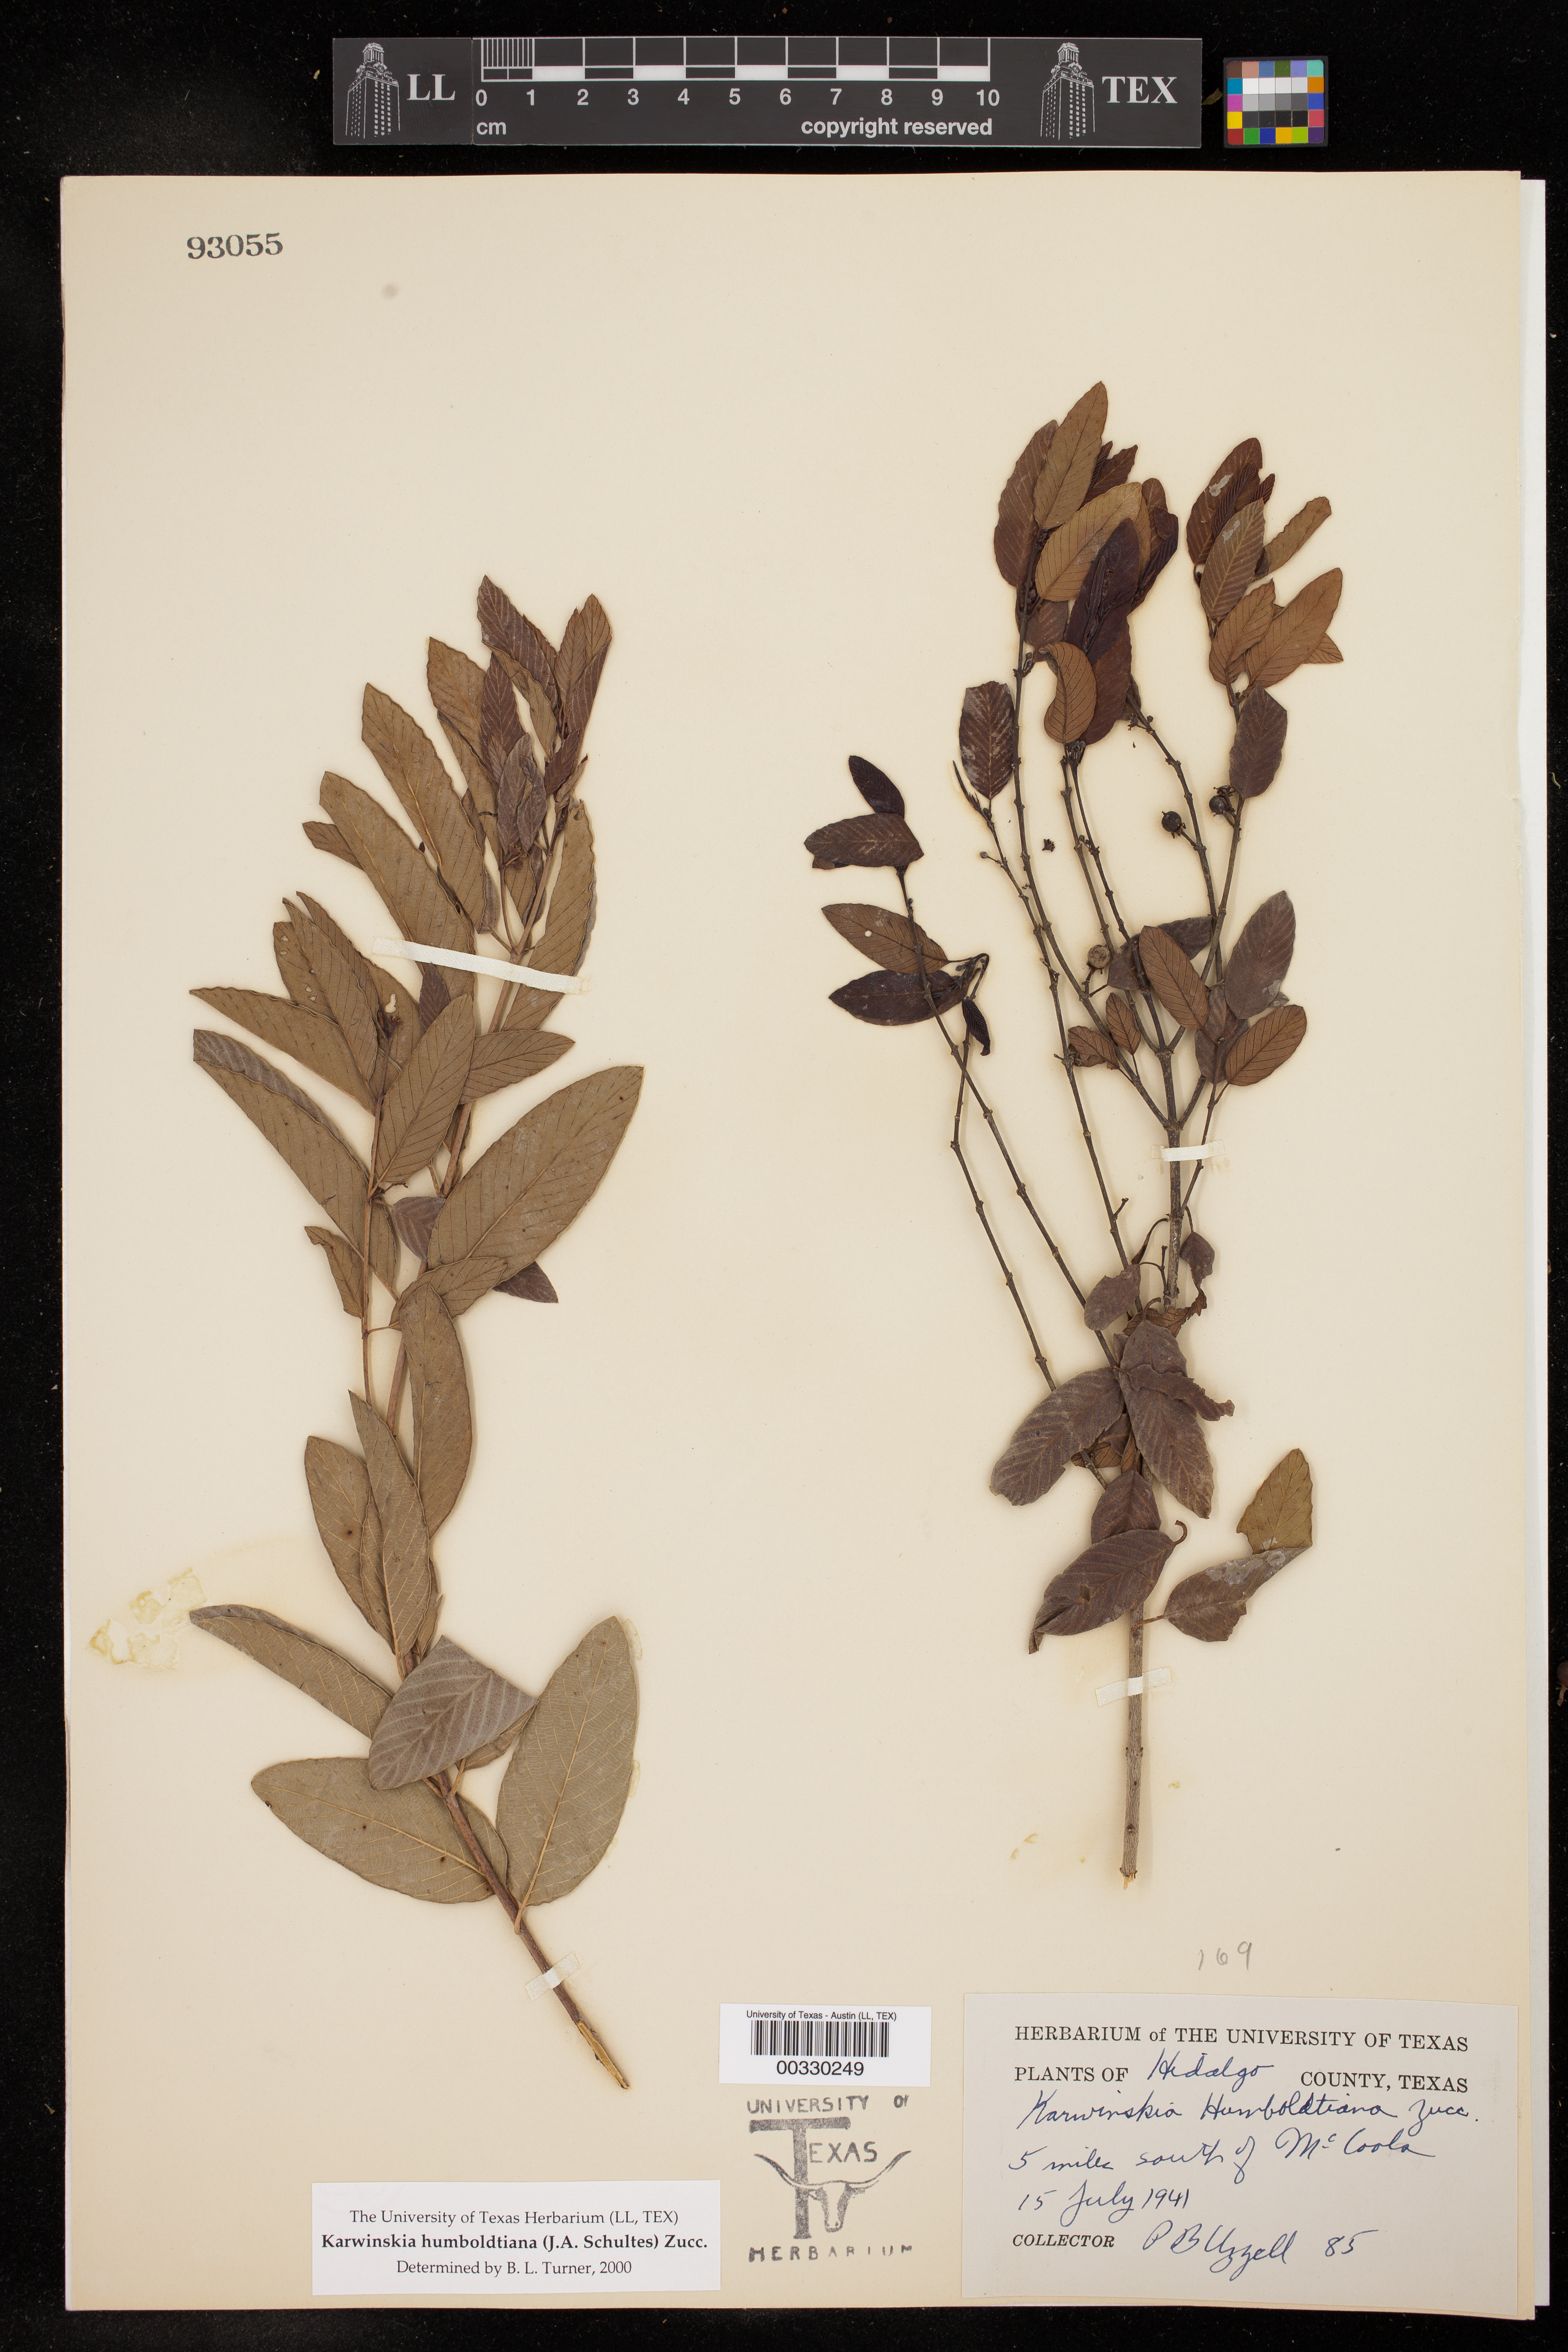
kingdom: Plantae
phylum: Tracheophyta
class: Magnoliopsida
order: Rosales
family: Rhamnaceae
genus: Karwinskia
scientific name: Karwinskia humboldtiana
